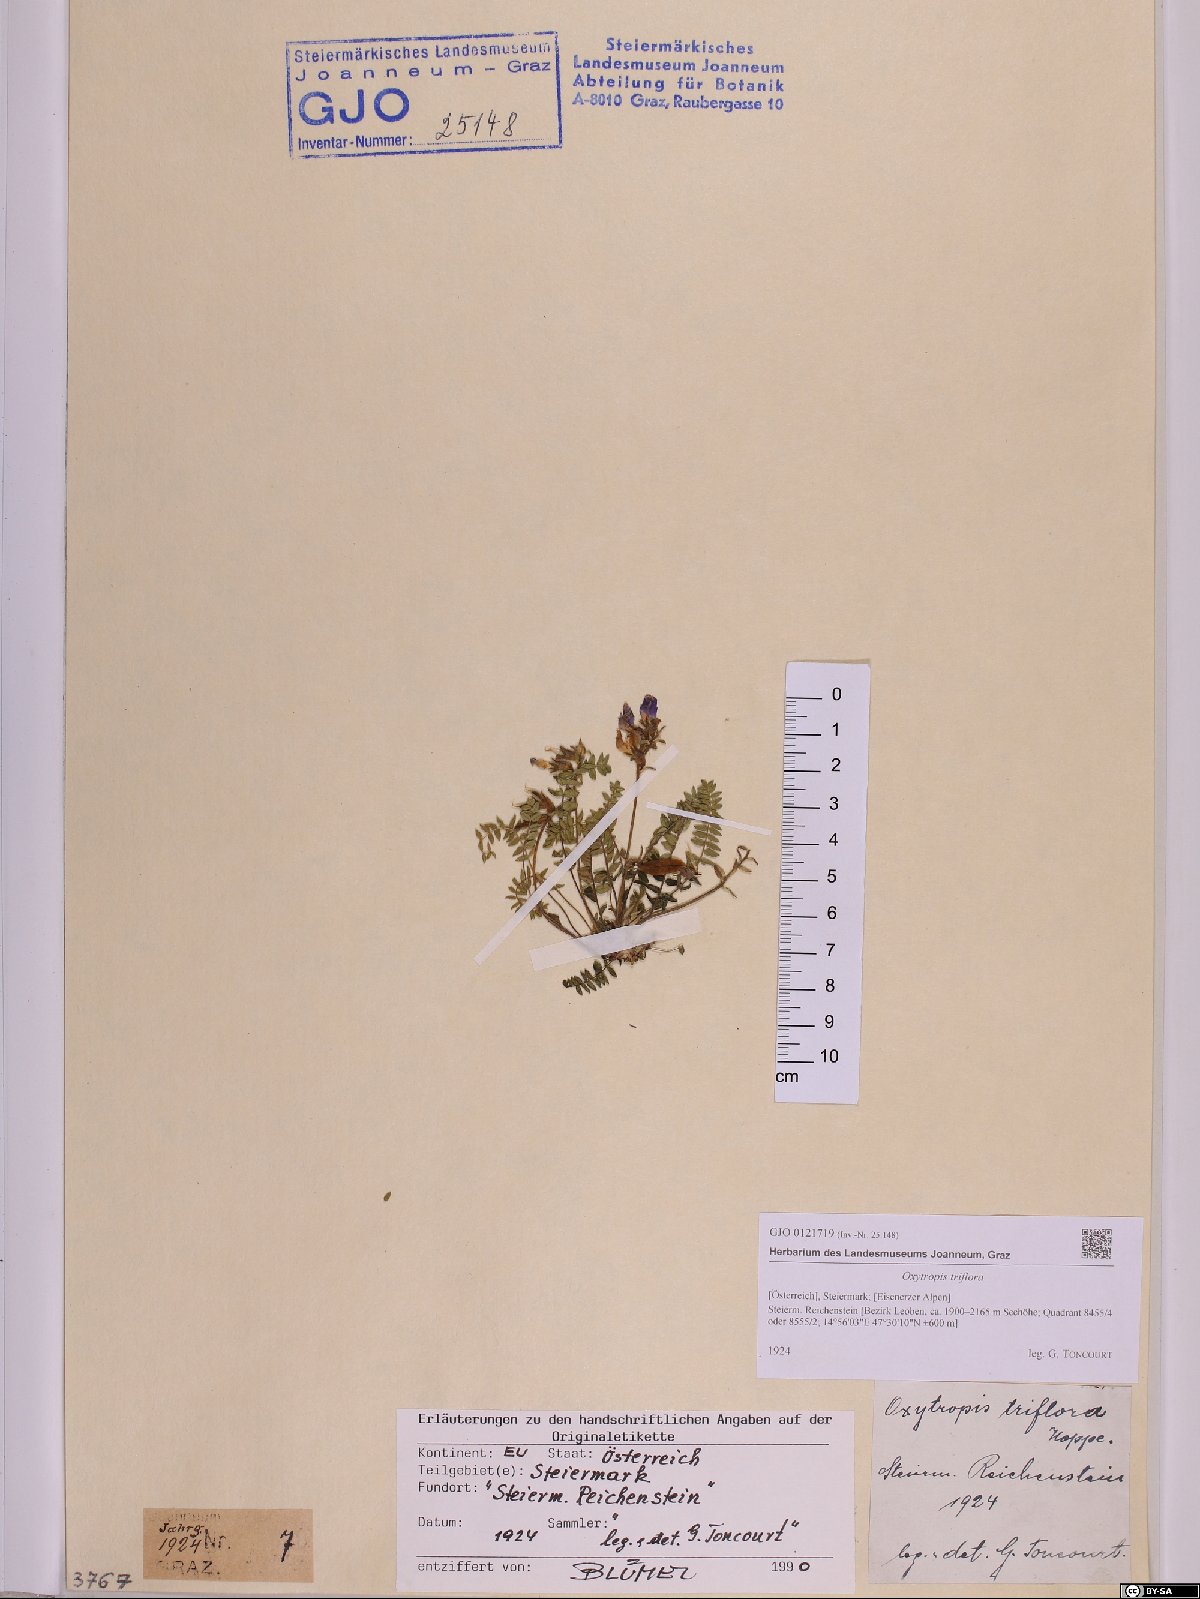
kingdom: Plantae
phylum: Tracheophyta
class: Magnoliopsida
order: Fabales
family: Fabaceae
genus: Oxytropis
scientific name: Oxytropis triflora
